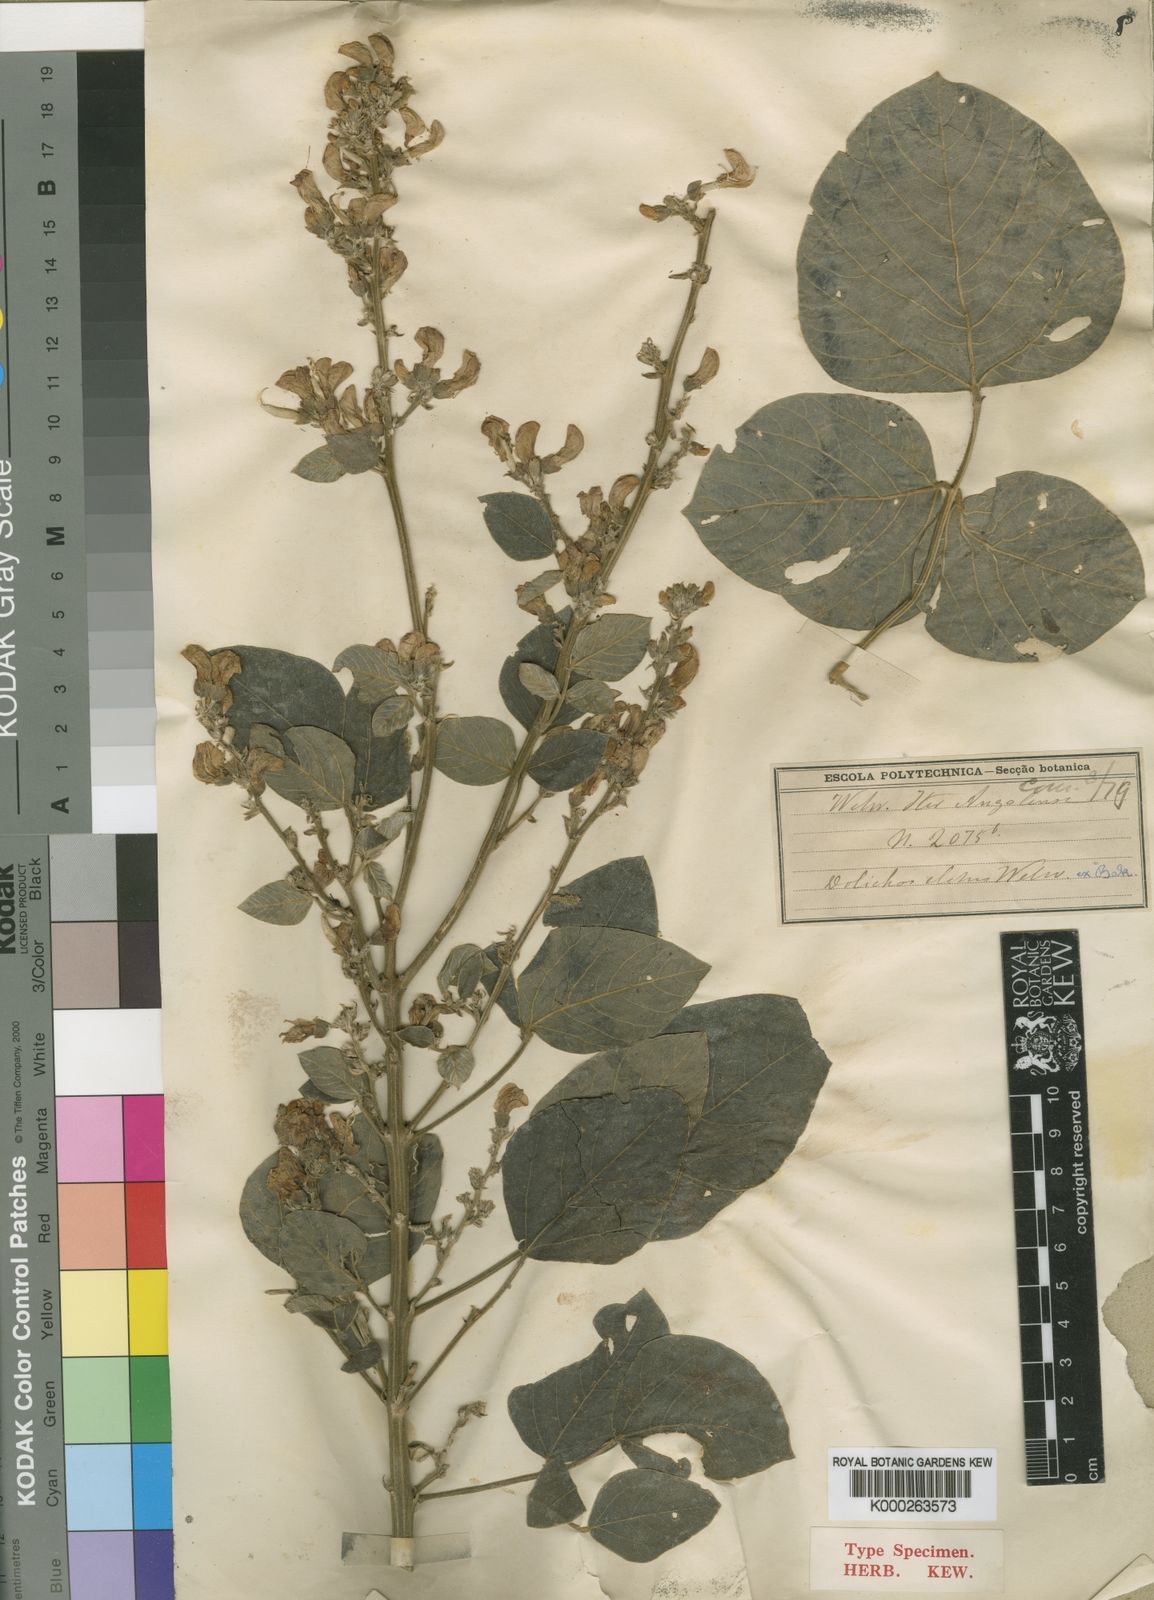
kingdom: Plantae
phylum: Tracheophyta
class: Magnoliopsida
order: Fabales
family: Fabaceae
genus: Dolichos
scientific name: Dolichos elatus
